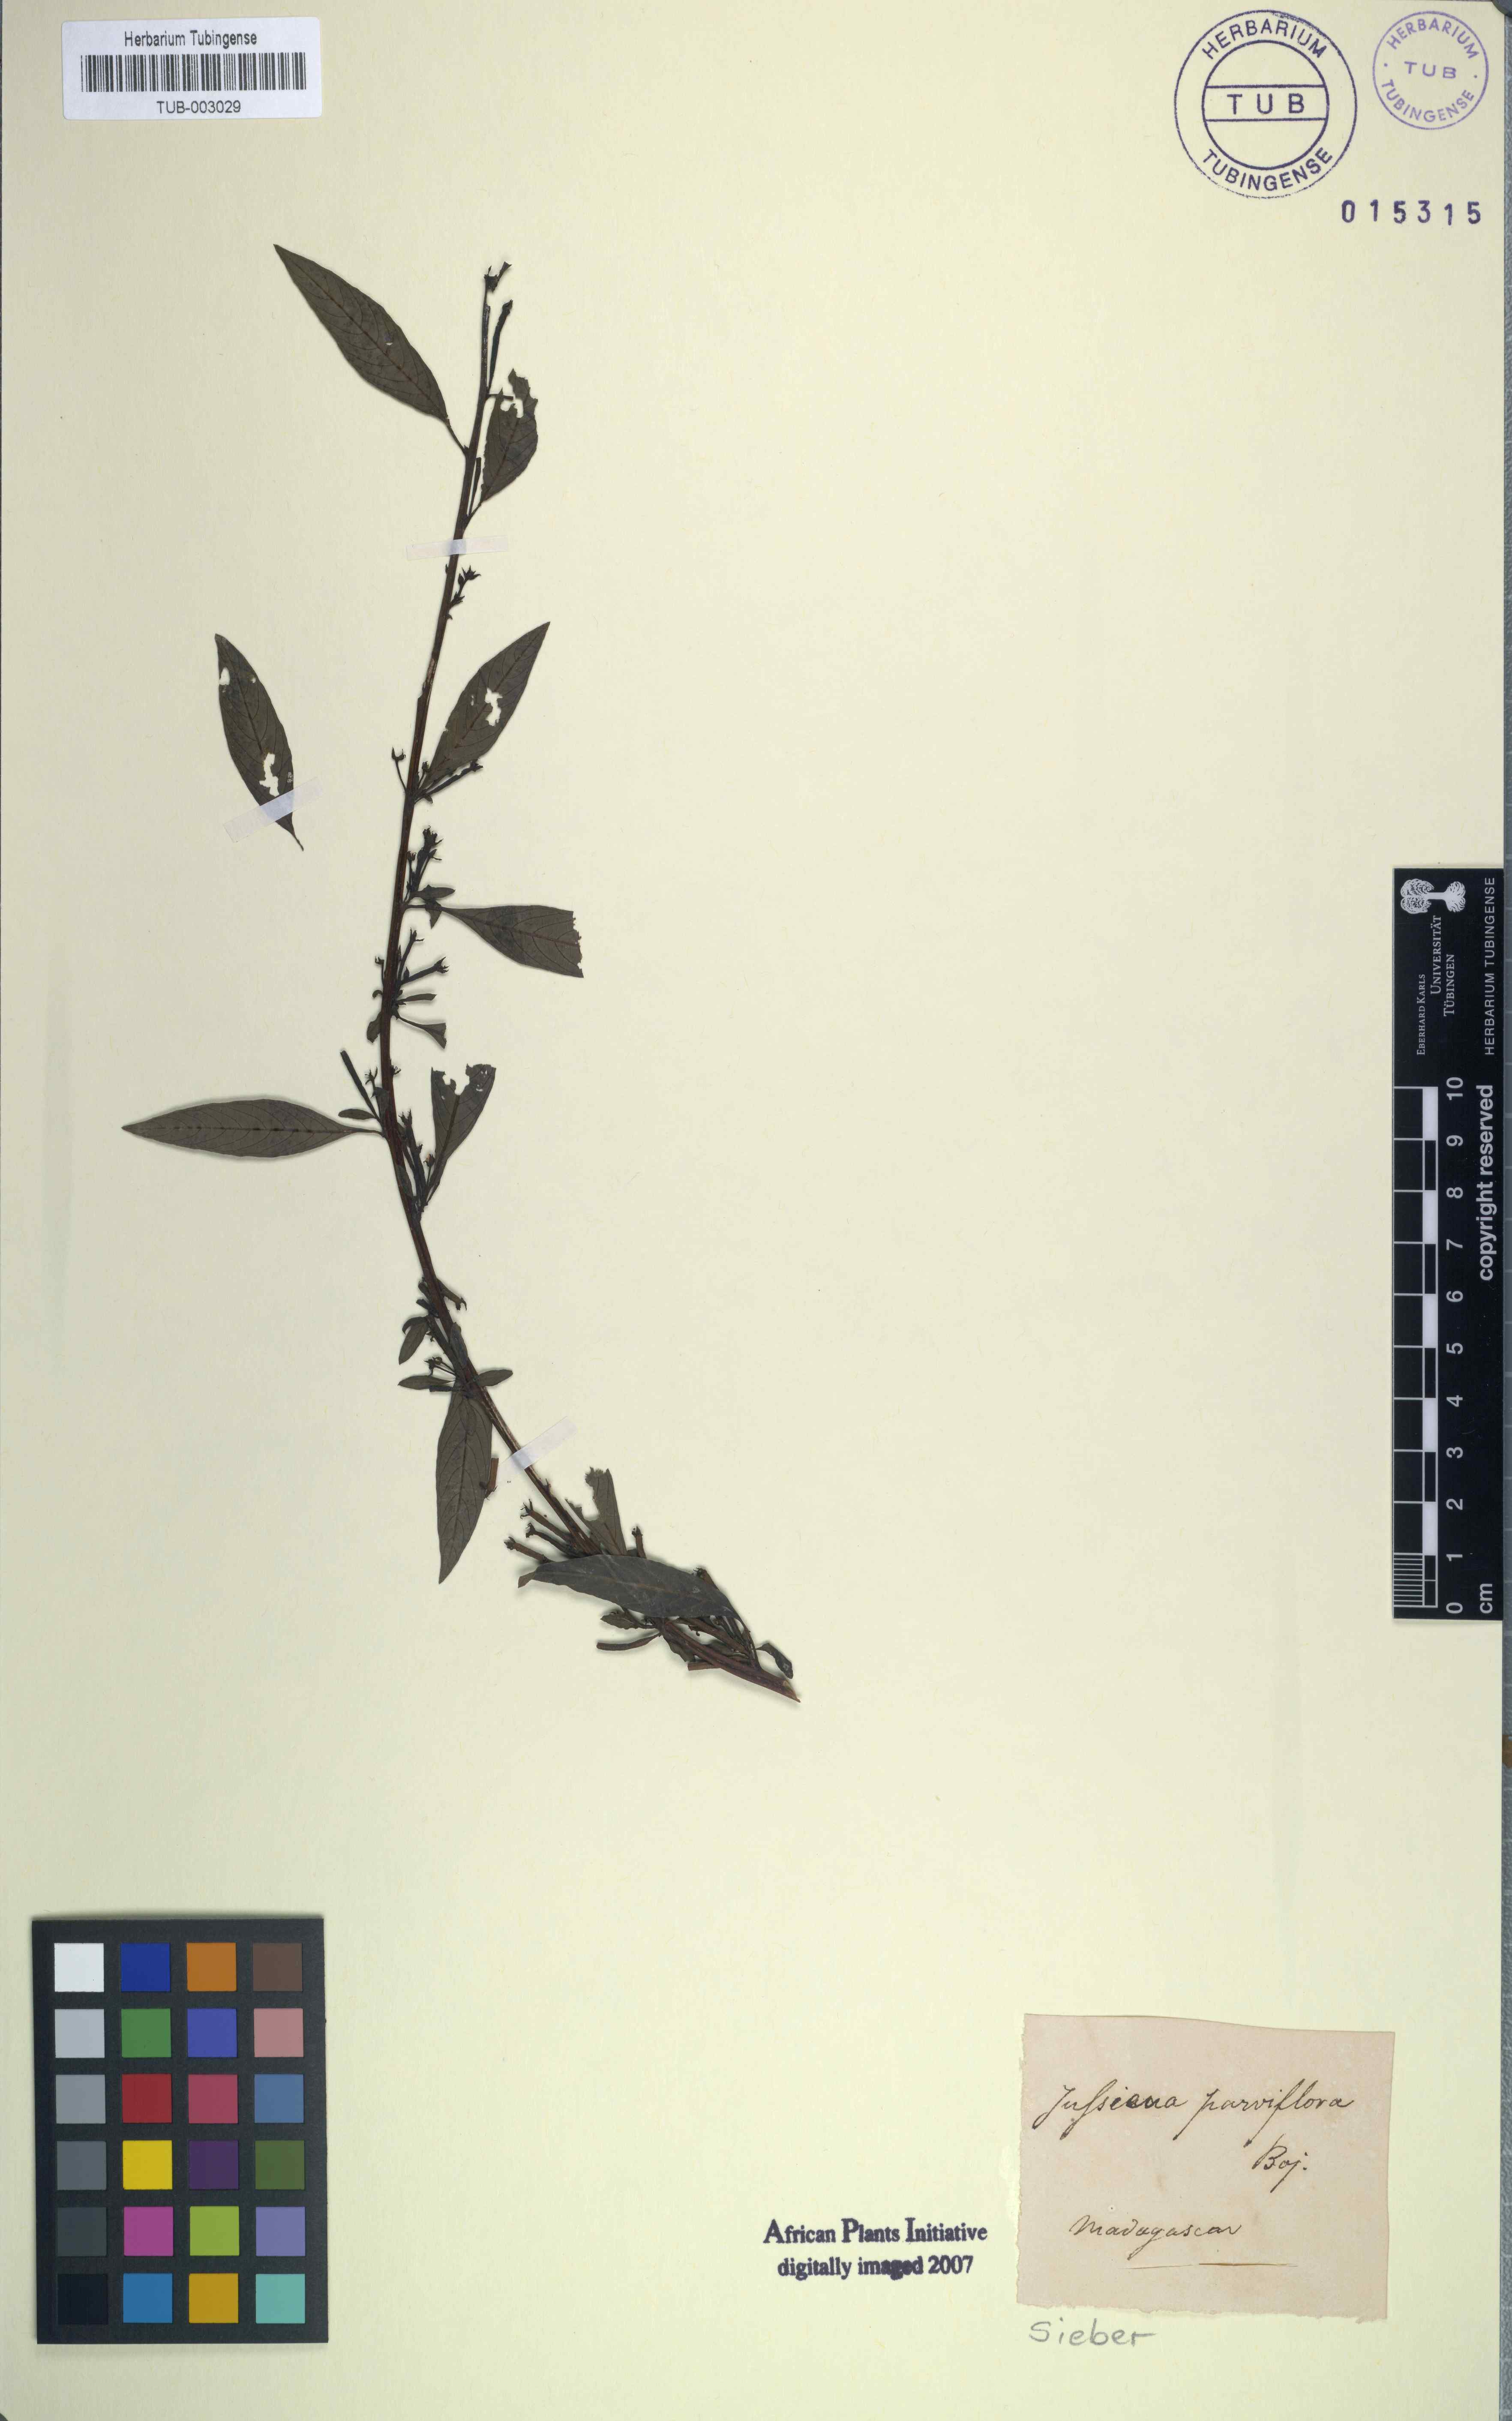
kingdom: Plantae
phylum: Tracheophyta
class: Magnoliopsida
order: Myrtales
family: Onagraceae
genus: Ludwigia
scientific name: Ludwigia
